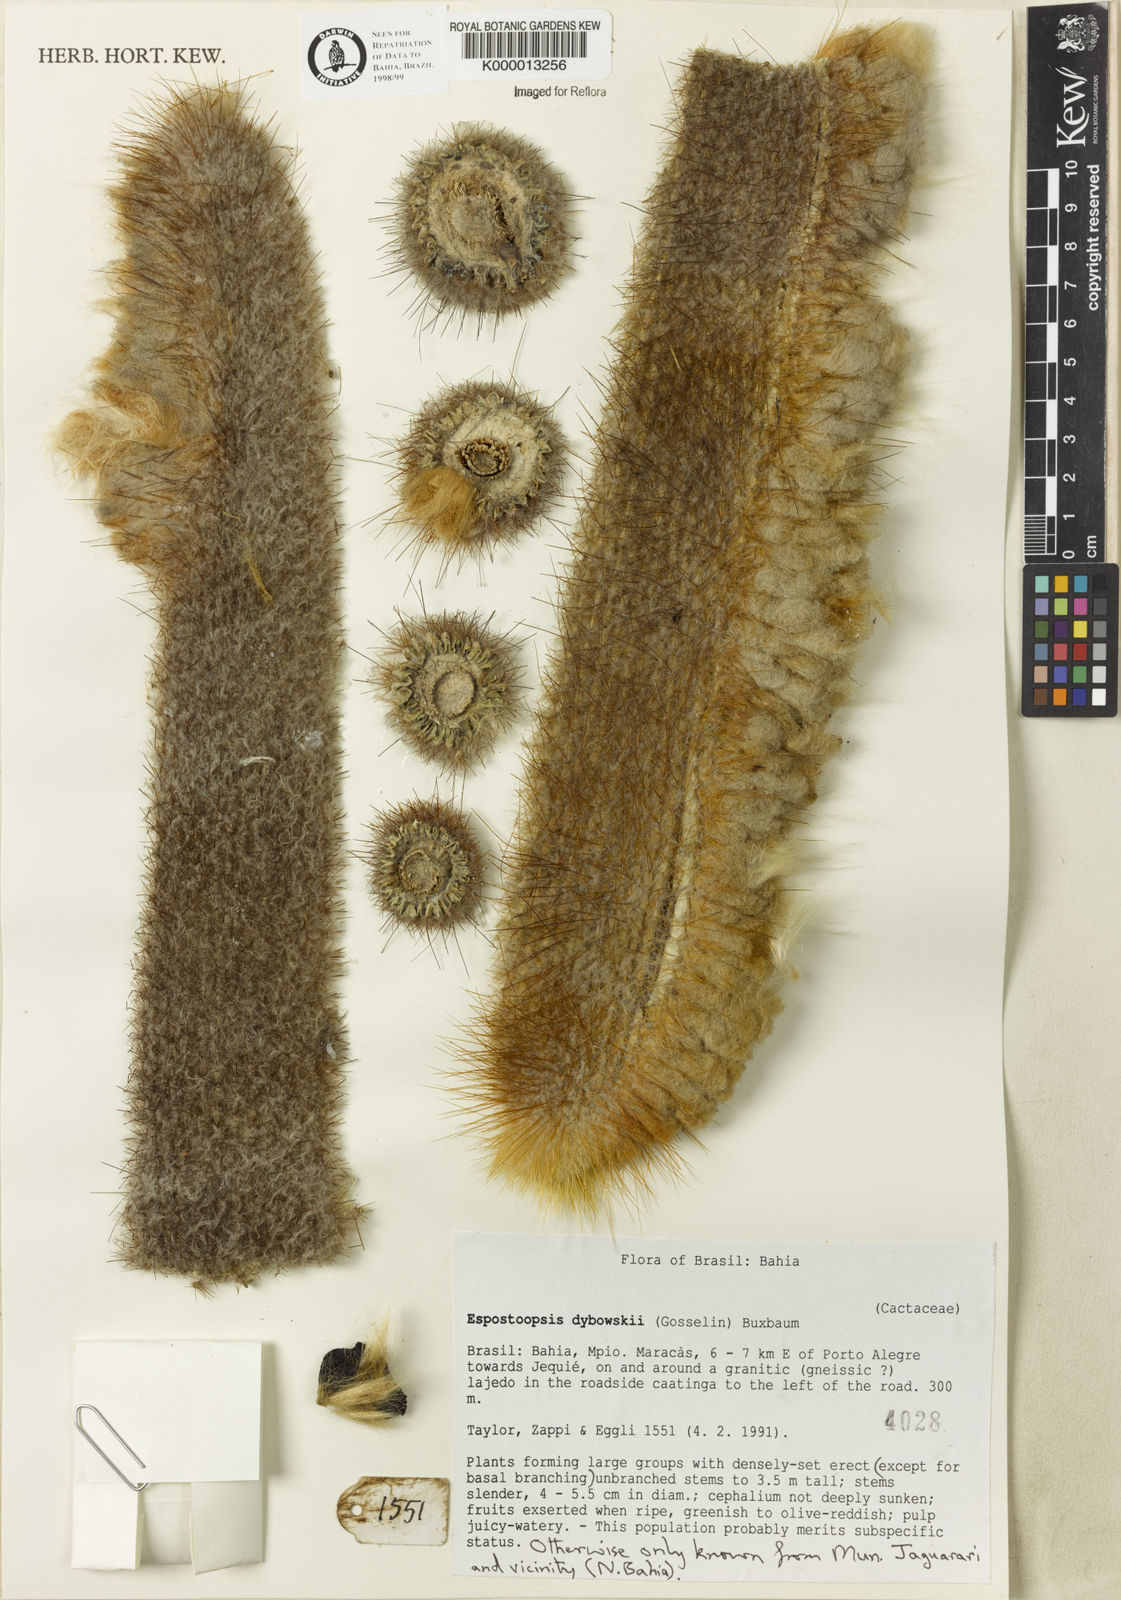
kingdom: Plantae
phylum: Tracheophyta
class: Magnoliopsida
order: Caryophyllales
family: Cactaceae
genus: Espostoopsis
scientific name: Espostoopsis dybowskii
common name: Cabega
